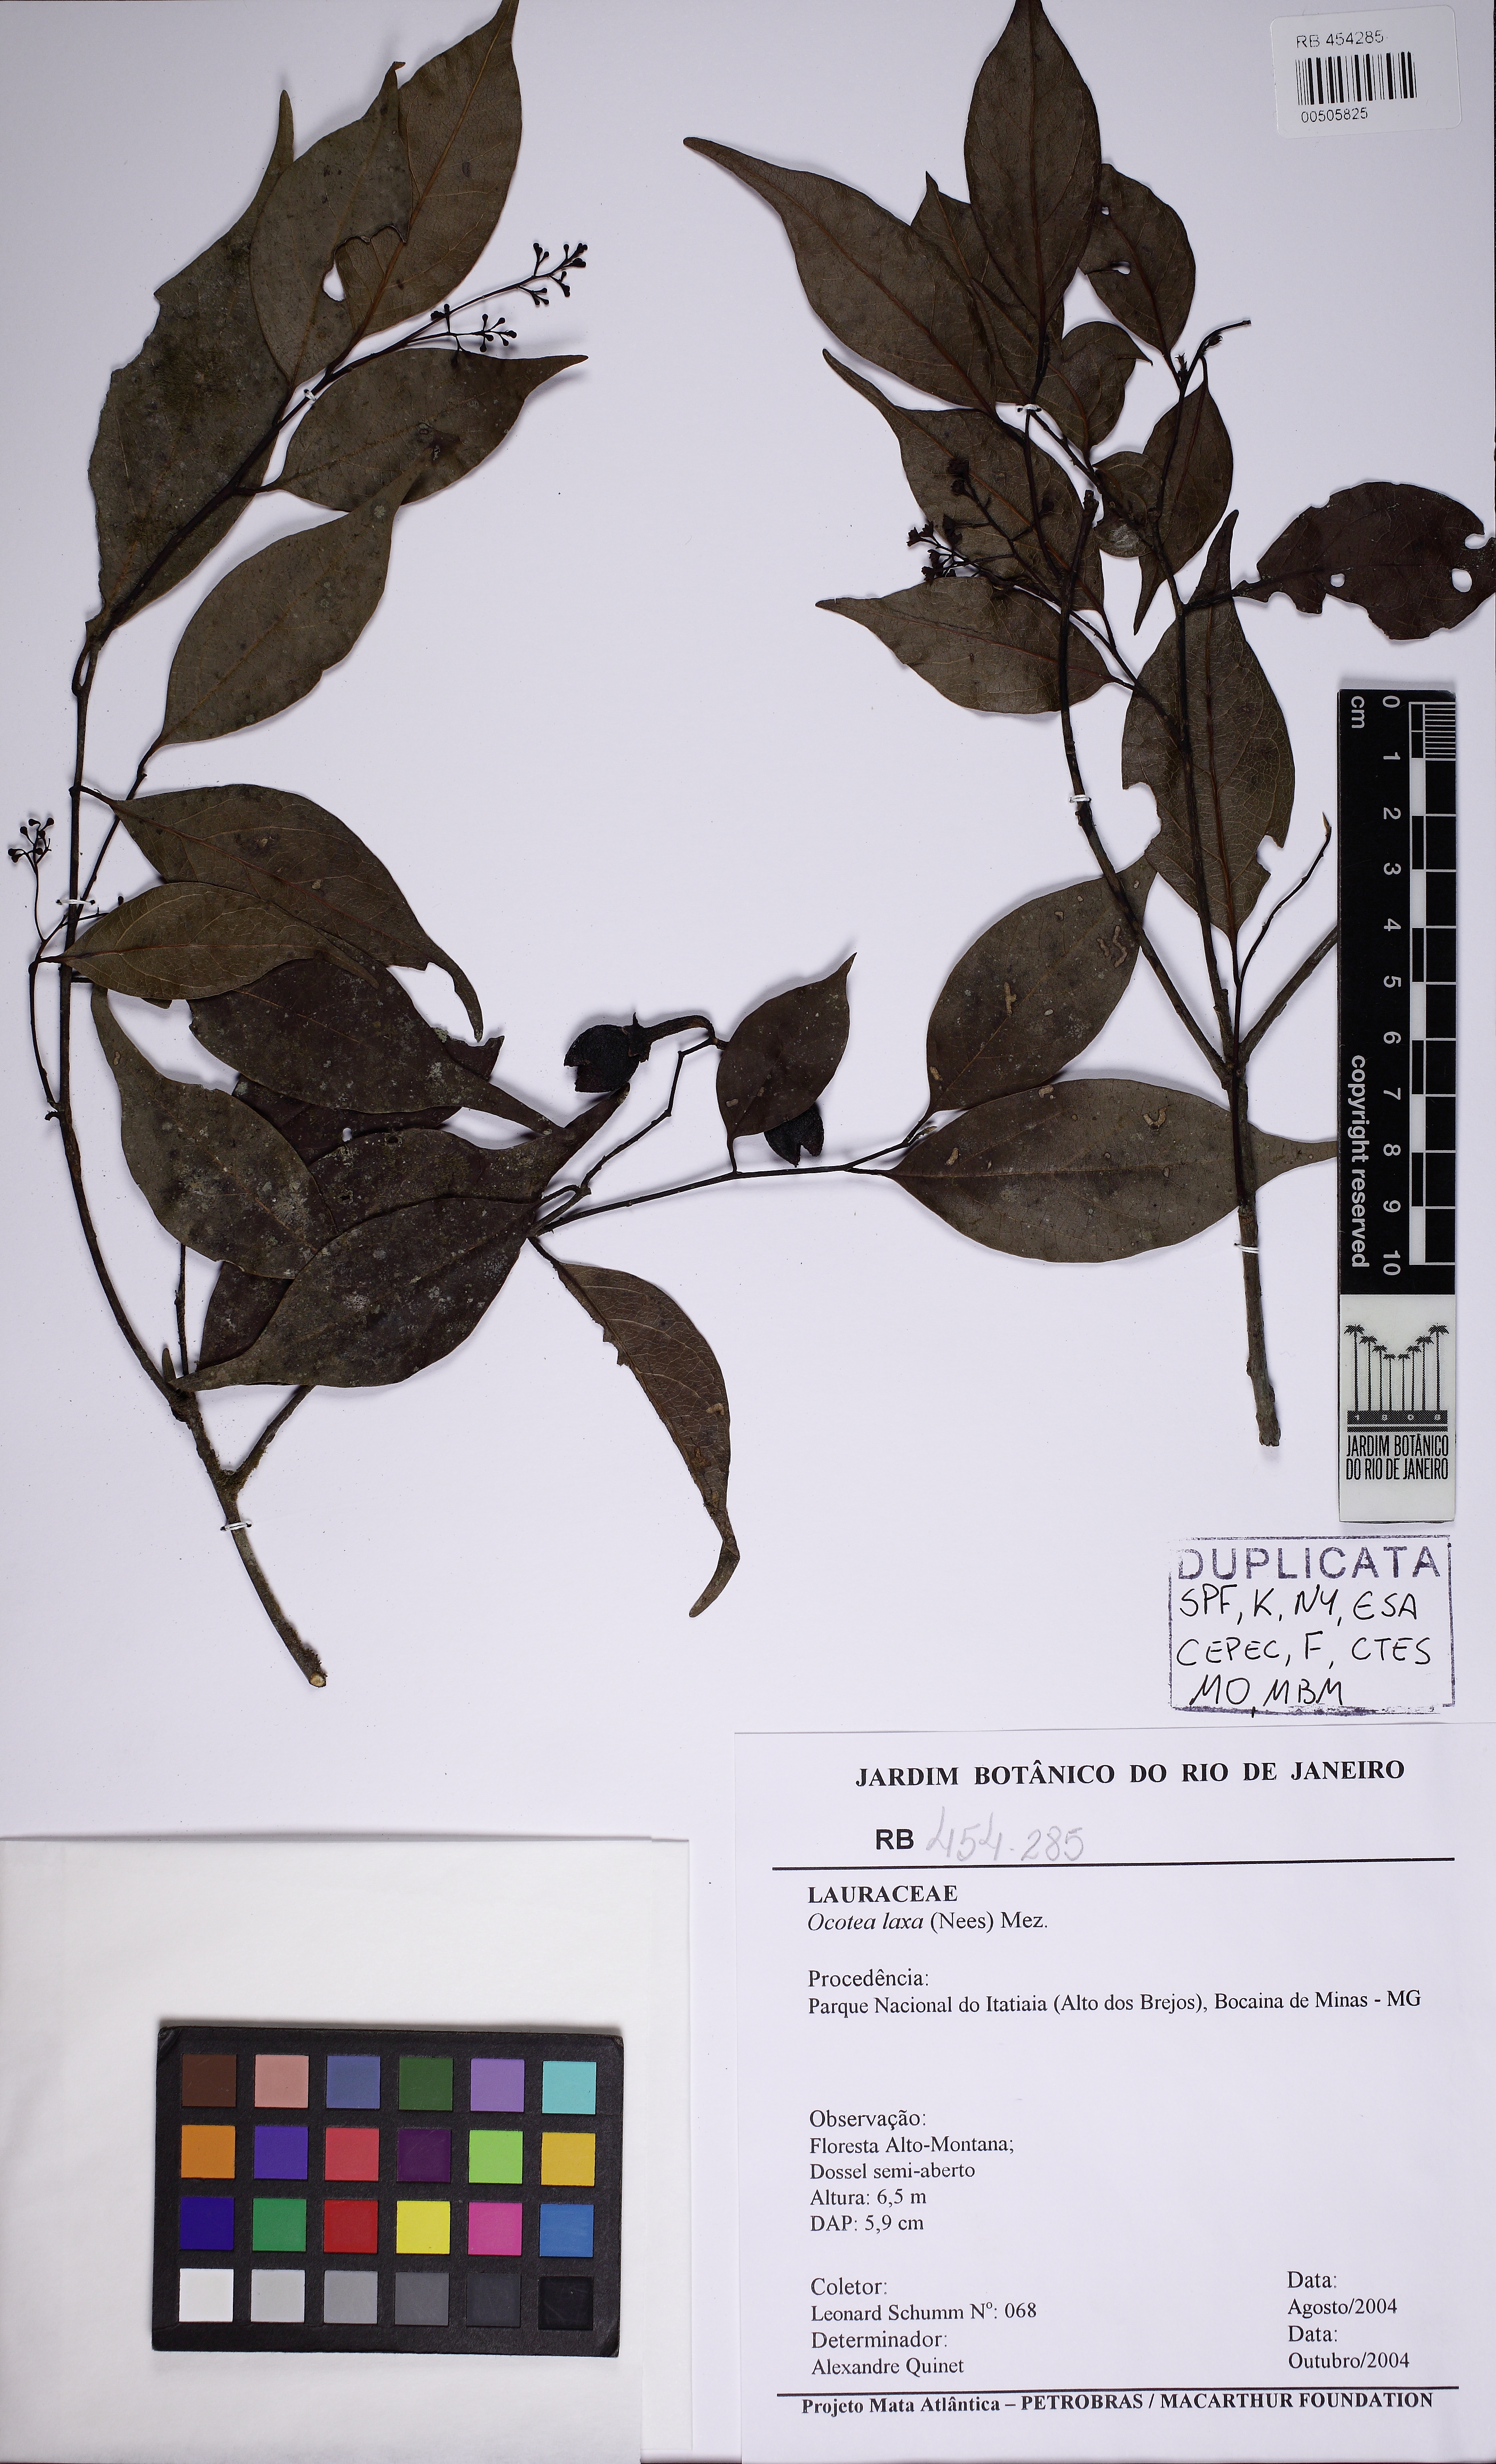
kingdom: Plantae
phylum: Tracheophyta
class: Magnoliopsida
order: Laurales
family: Lauraceae
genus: Ocotea
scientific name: Ocotea laxa
